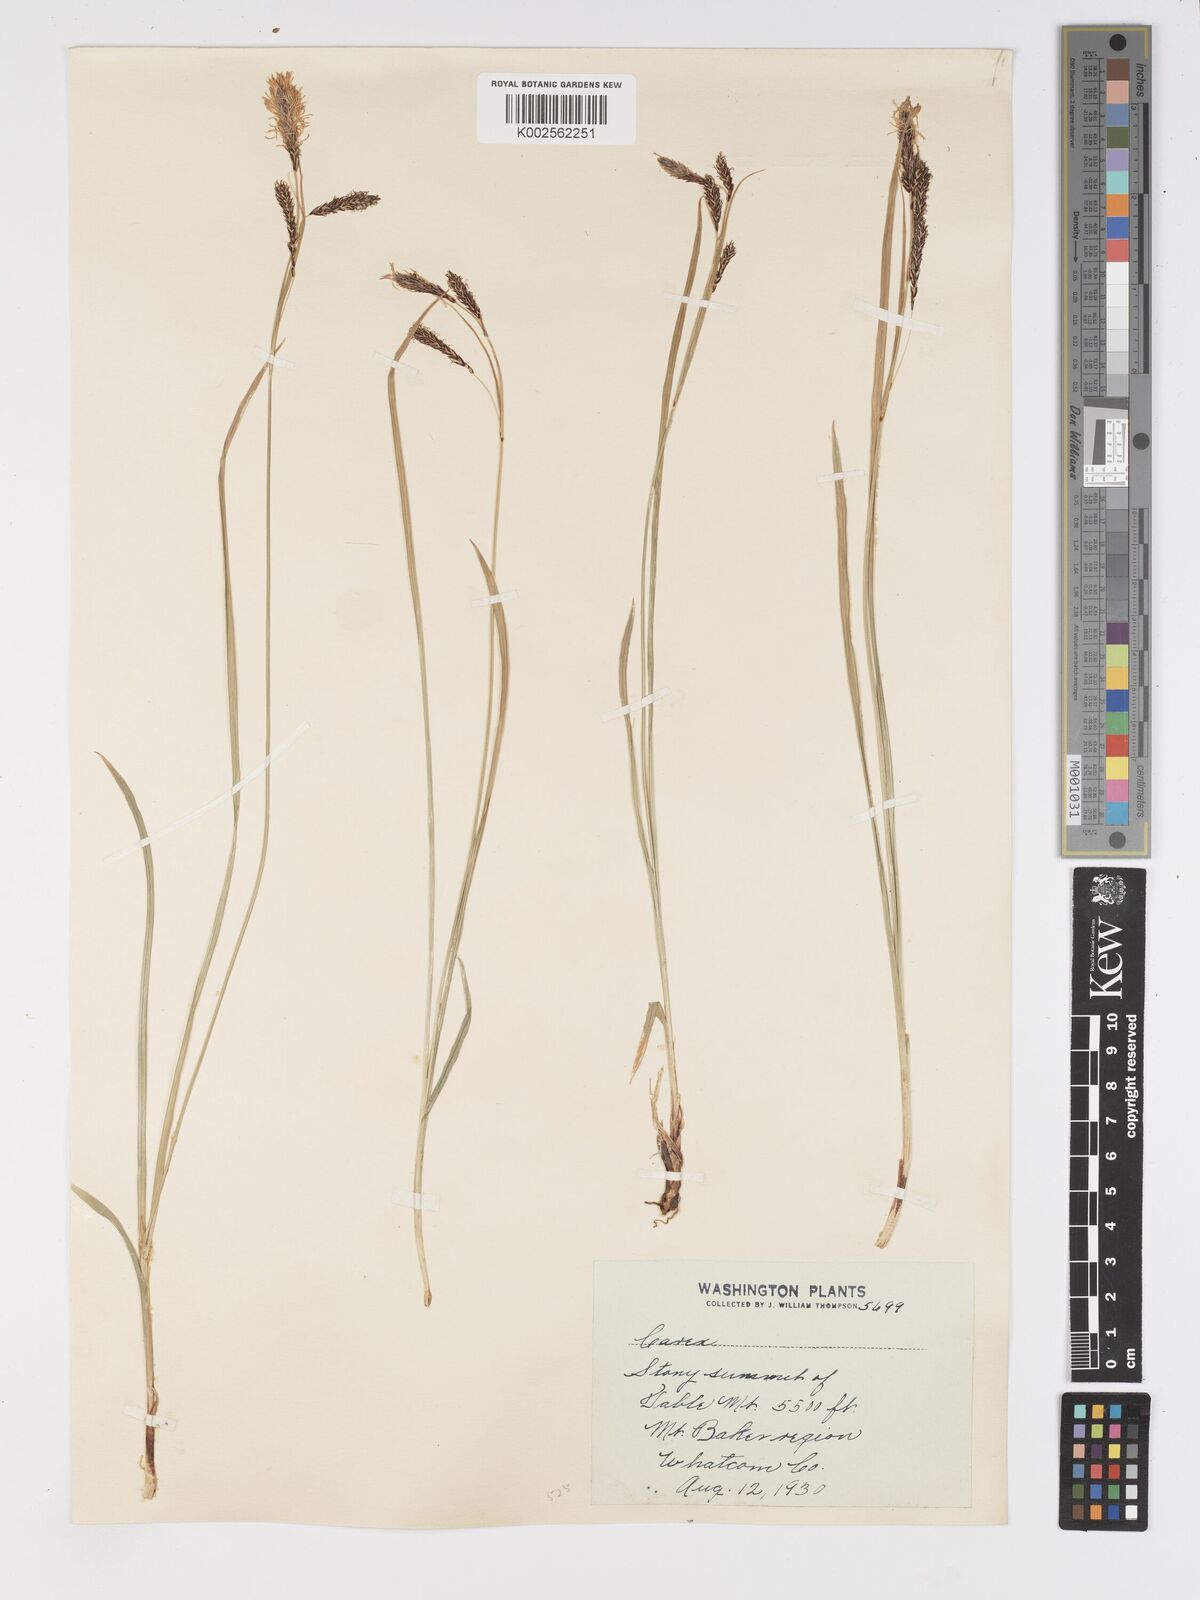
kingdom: Plantae
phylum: Tracheophyta
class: Liliopsida
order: Poales
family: Cyperaceae
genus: Carex
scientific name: Carex nebrascensis
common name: Nebraska sedge
